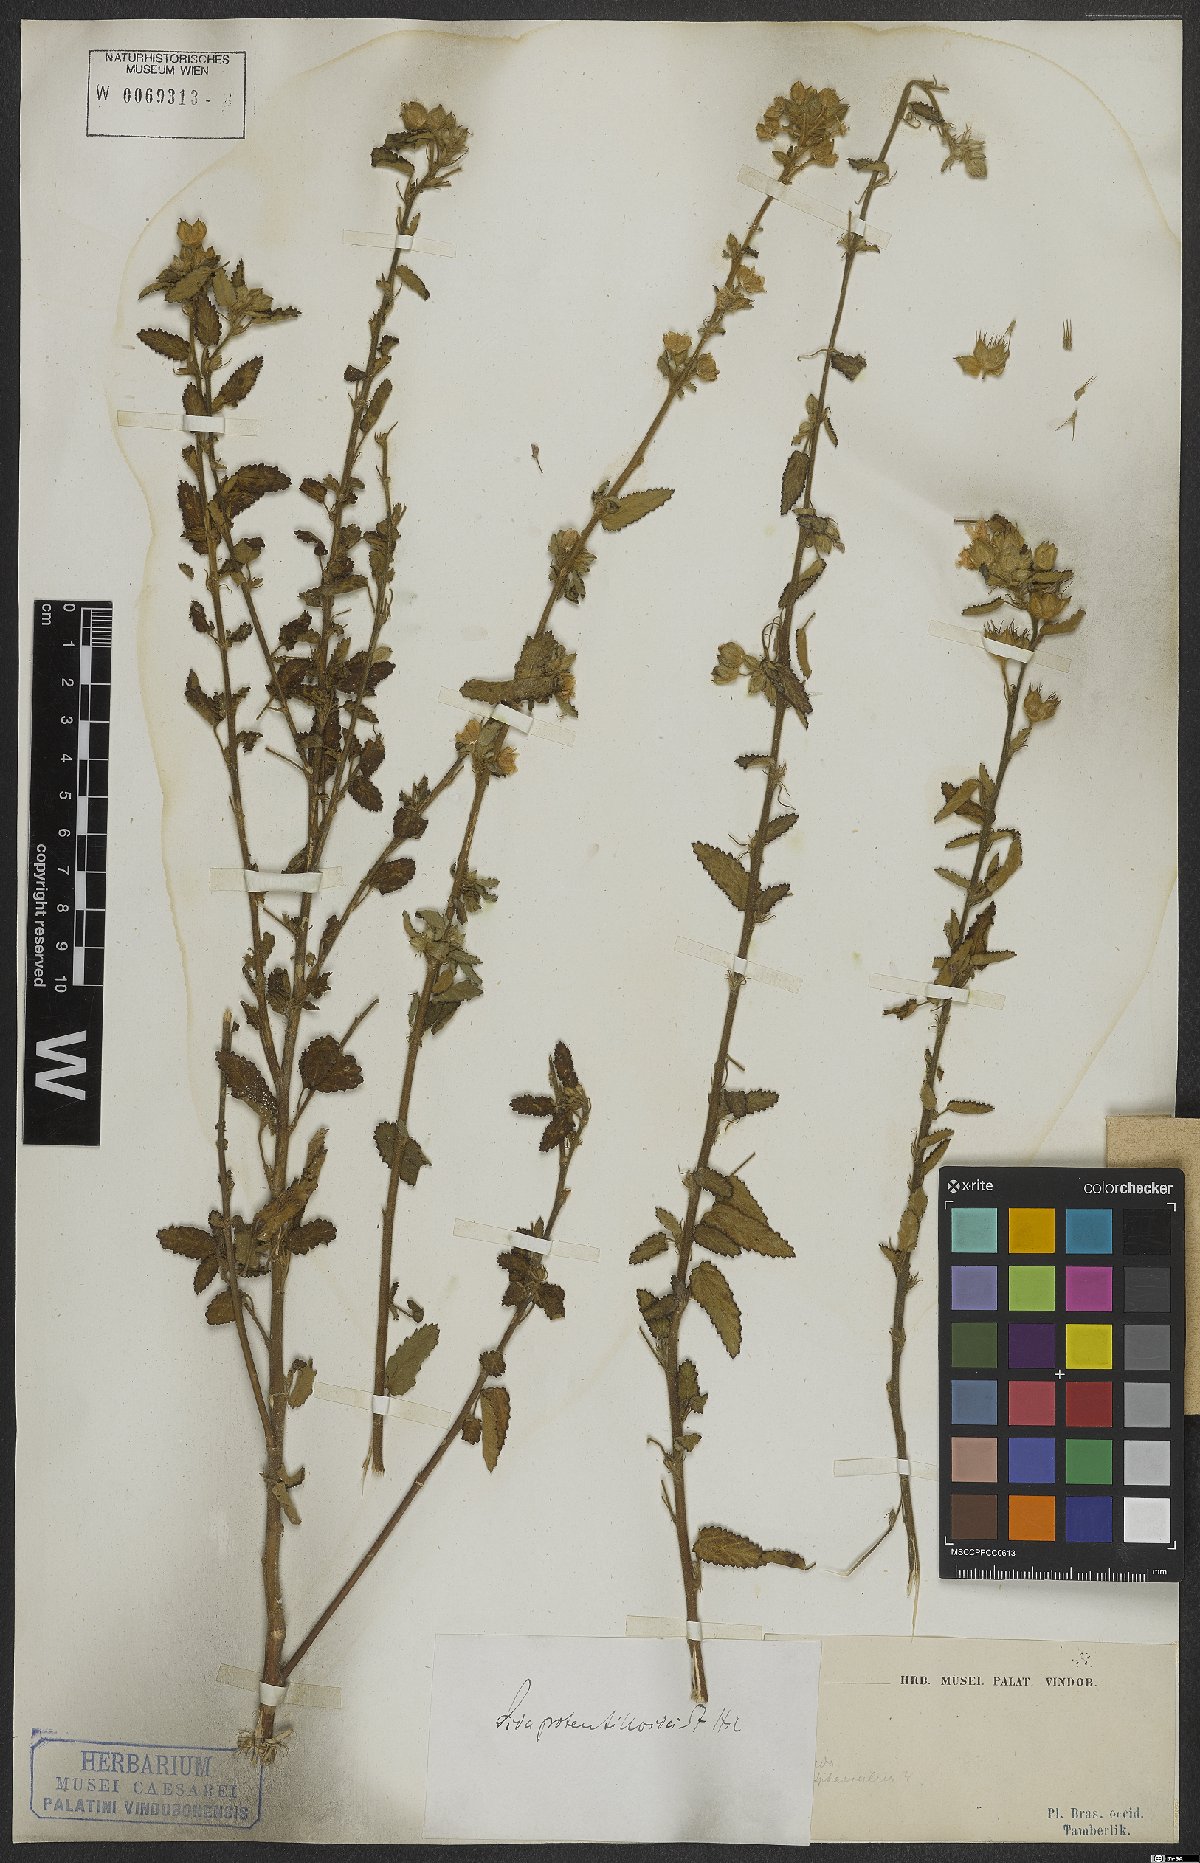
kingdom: Plantae
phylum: Tracheophyta
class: Magnoliopsida
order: Malvales
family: Malvaceae
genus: Sida
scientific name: Sida potentilloides
